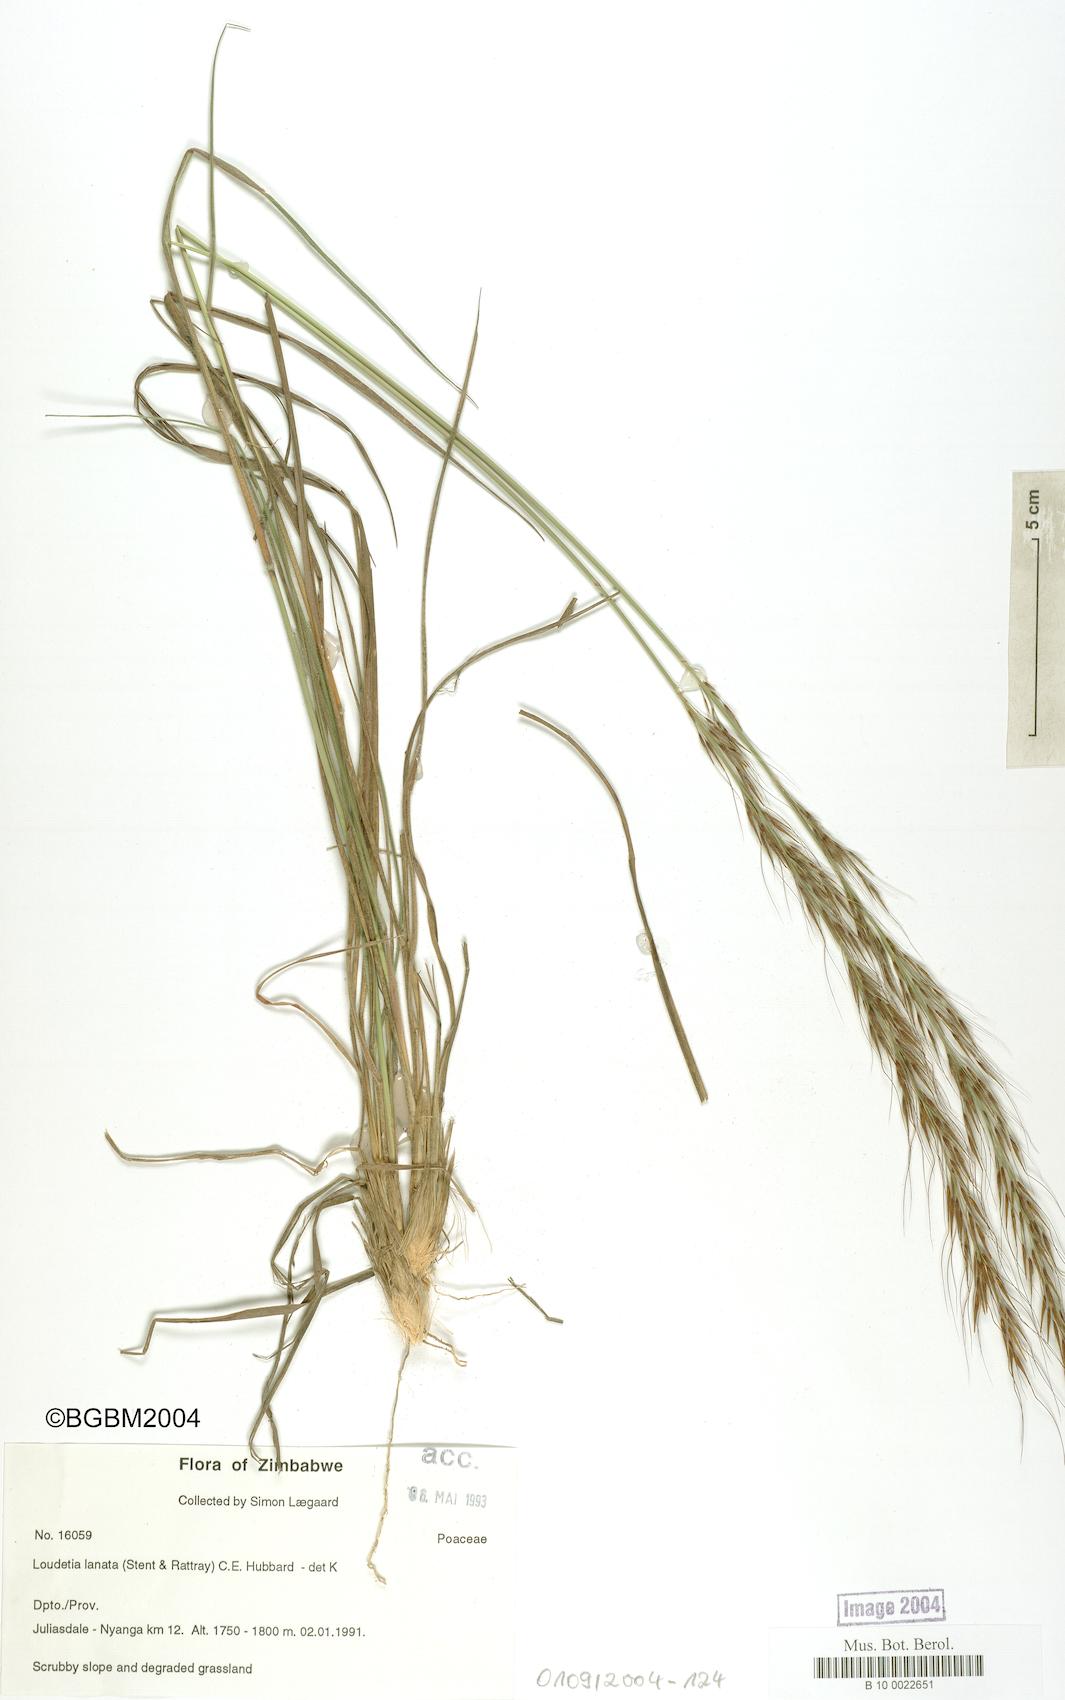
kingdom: Plantae
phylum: Tracheophyta
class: Liliopsida
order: Poales
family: Poaceae
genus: Loudetia
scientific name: Loudetia lanata
